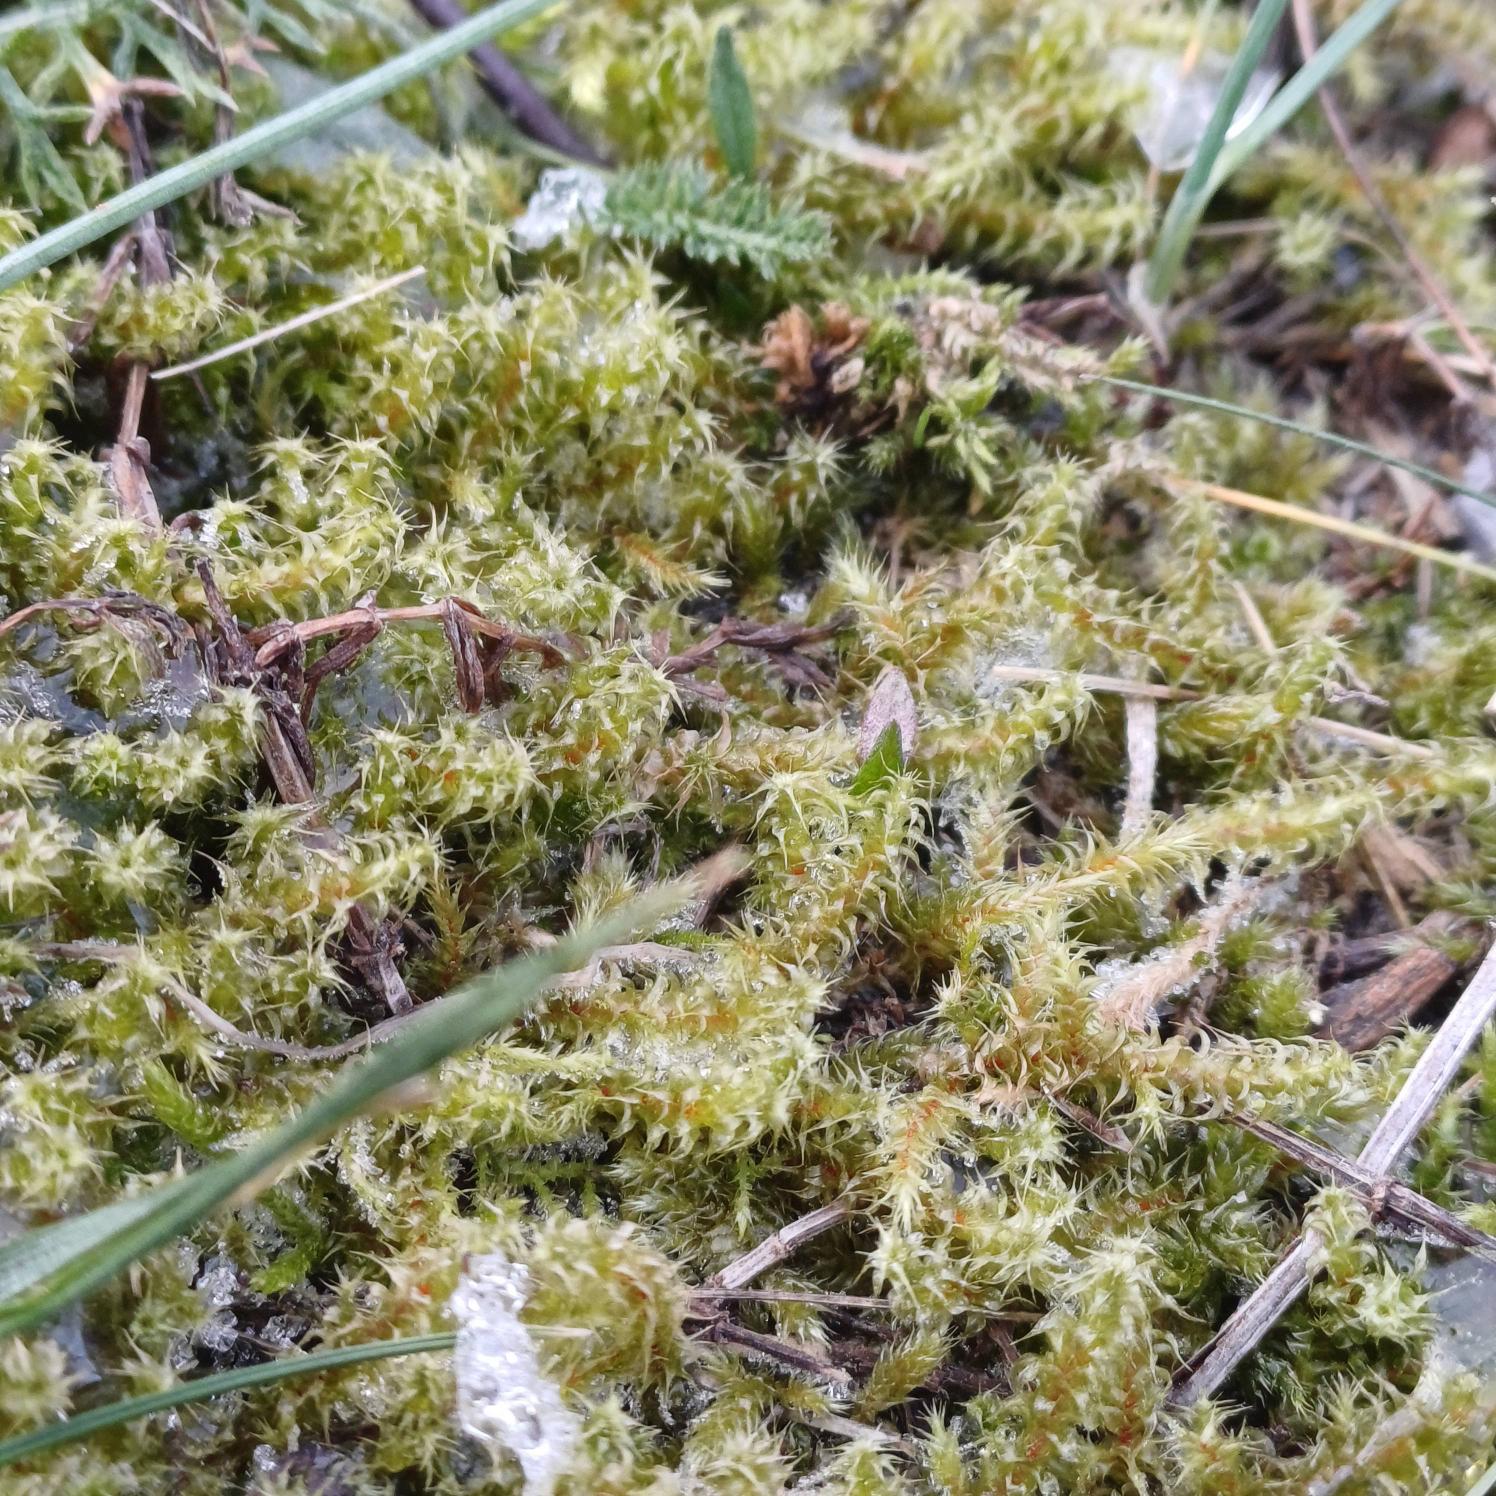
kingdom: Plantae
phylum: Bryophyta
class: Bryopsida
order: Hypnales
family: Hylocomiaceae
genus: Rhytidiadelphus
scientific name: Rhytidiadelphus squarrosus
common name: Plæne-kransemos
